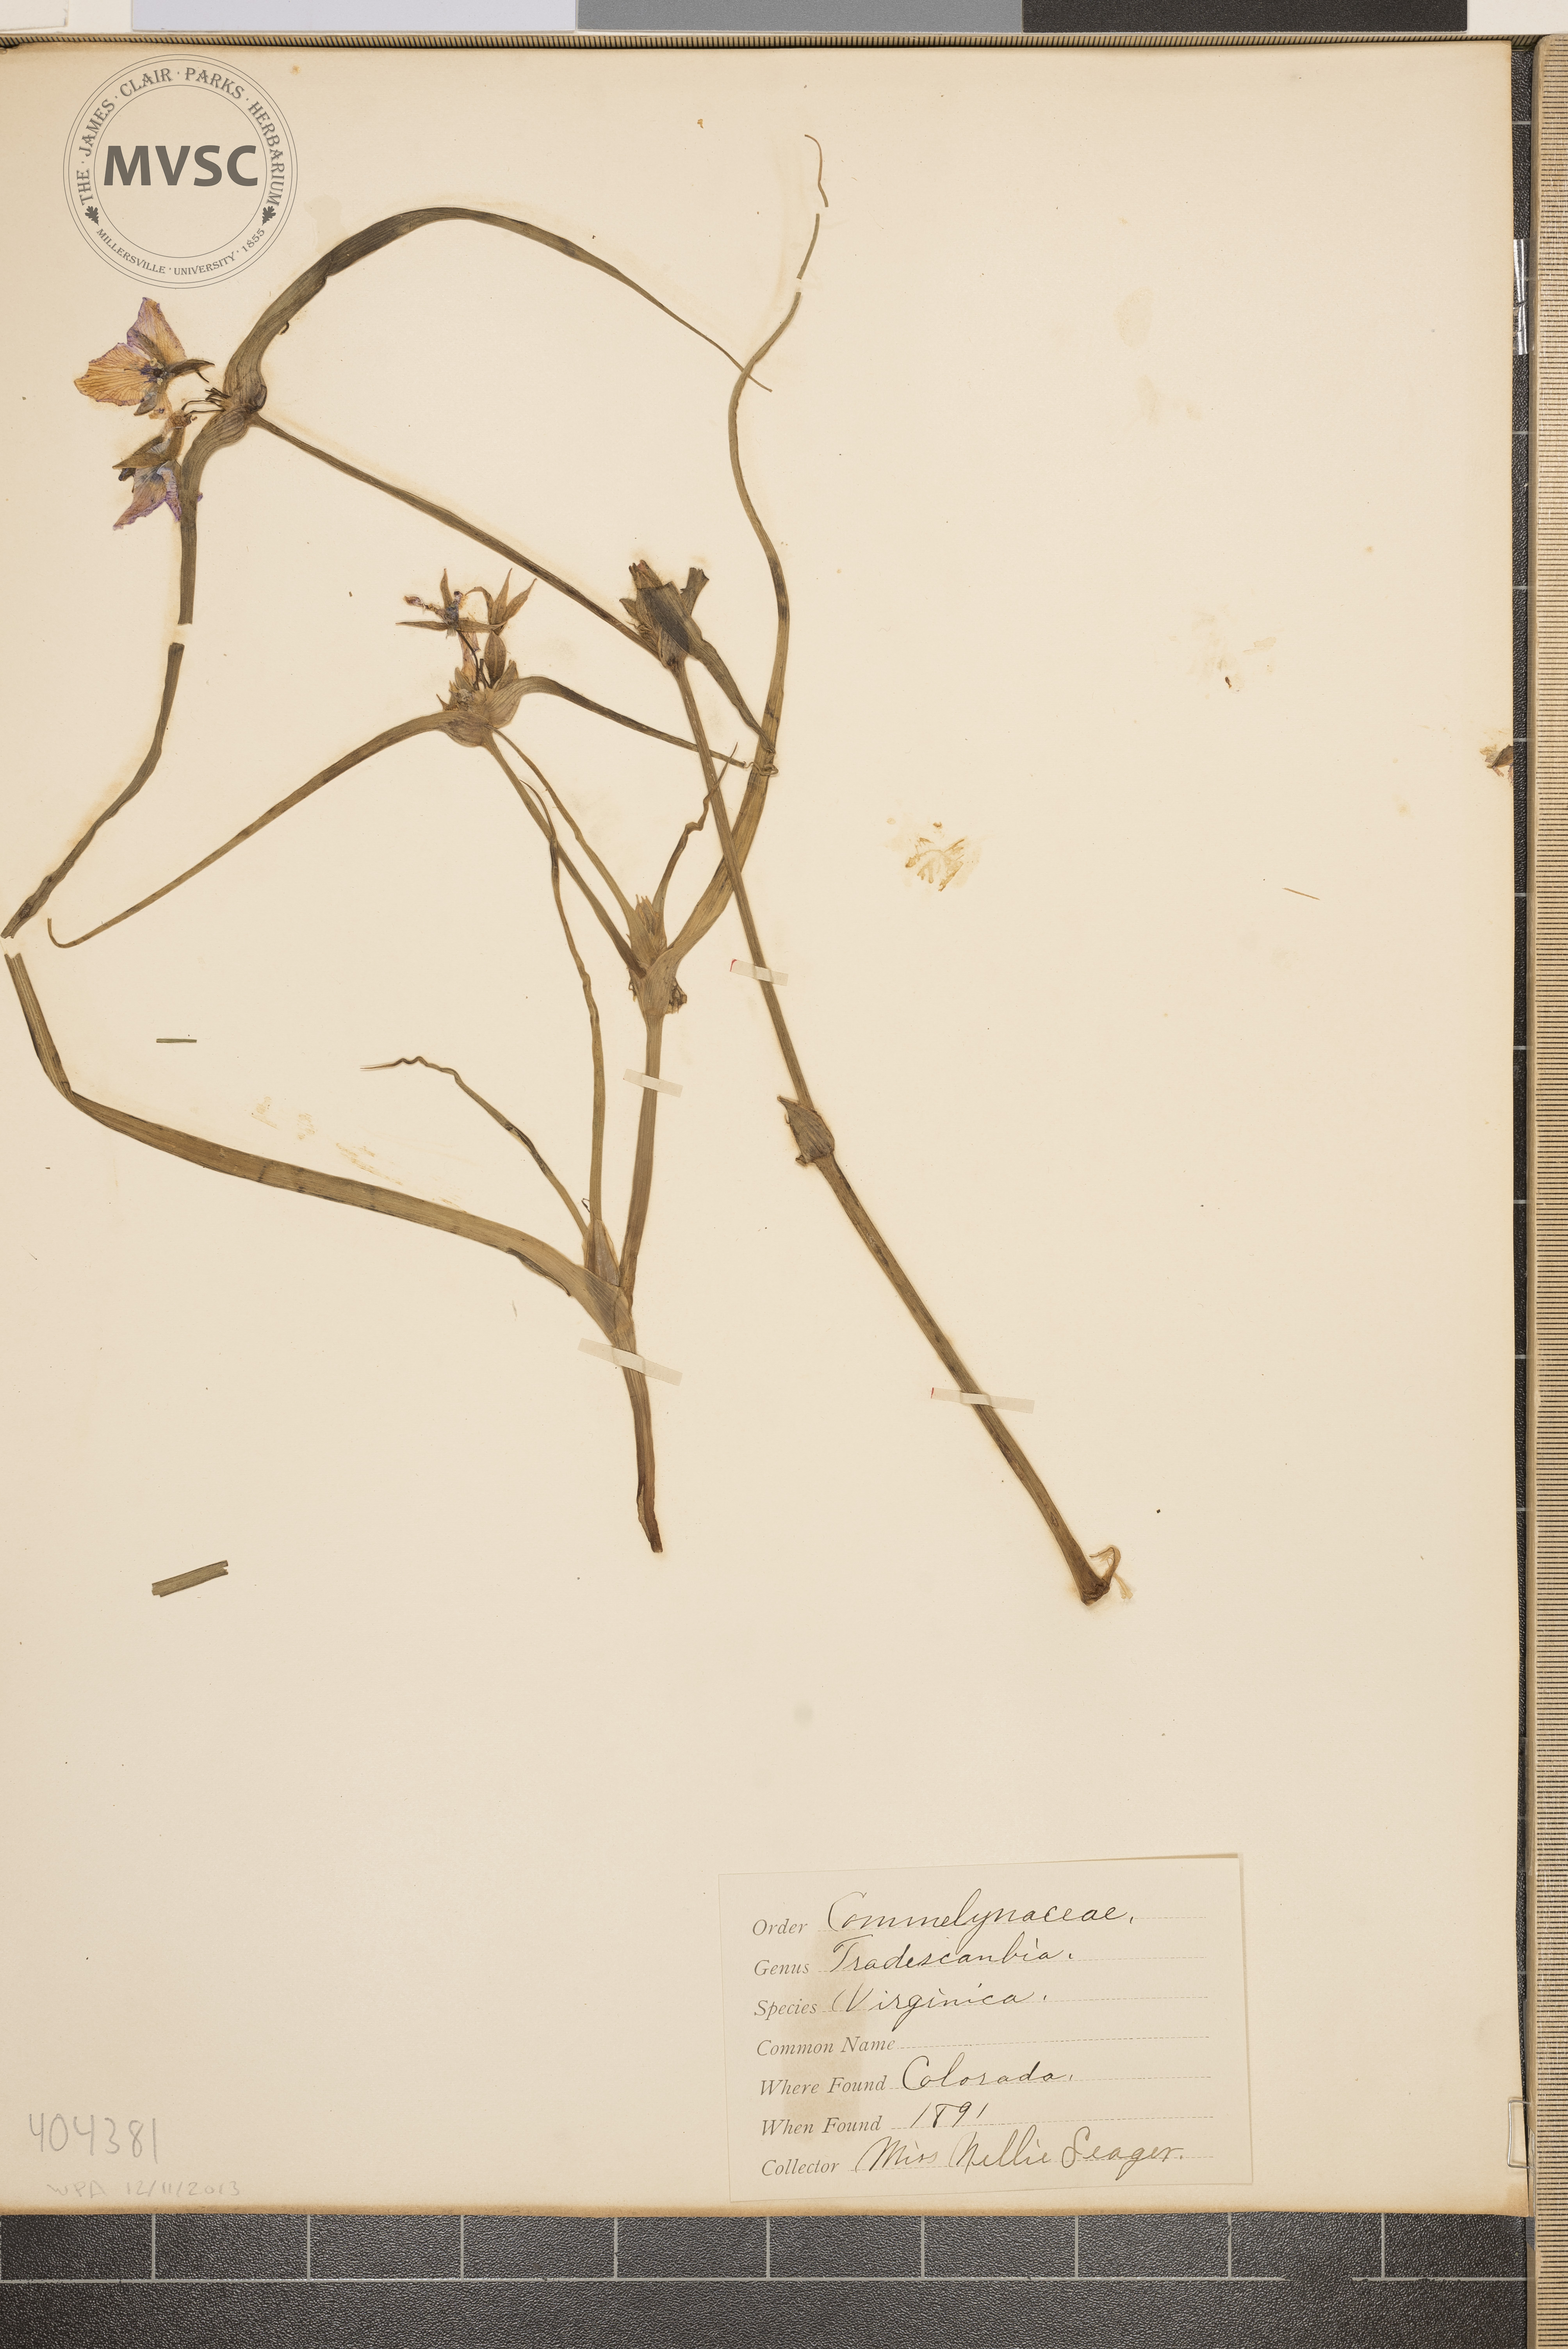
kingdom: Plantae
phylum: Tracheophyta
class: Liliopsida
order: Commelinales
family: Commelinaceae
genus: Tradescantia
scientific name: Tradescantia virginiana
